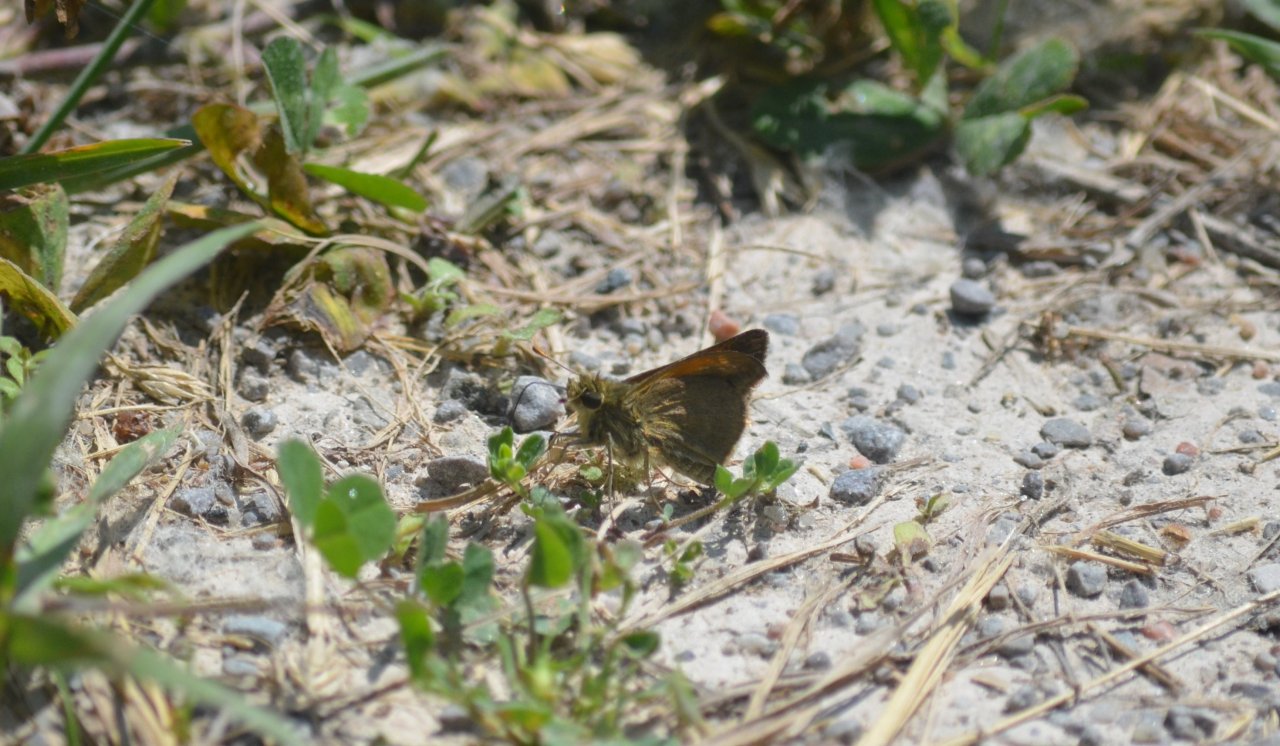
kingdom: Animalia
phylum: Arthropoda
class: Insecta
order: Lepidoptera
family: Hesperiidae
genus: Polites
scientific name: Polites themistocles
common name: Tawny-edged Skipper
